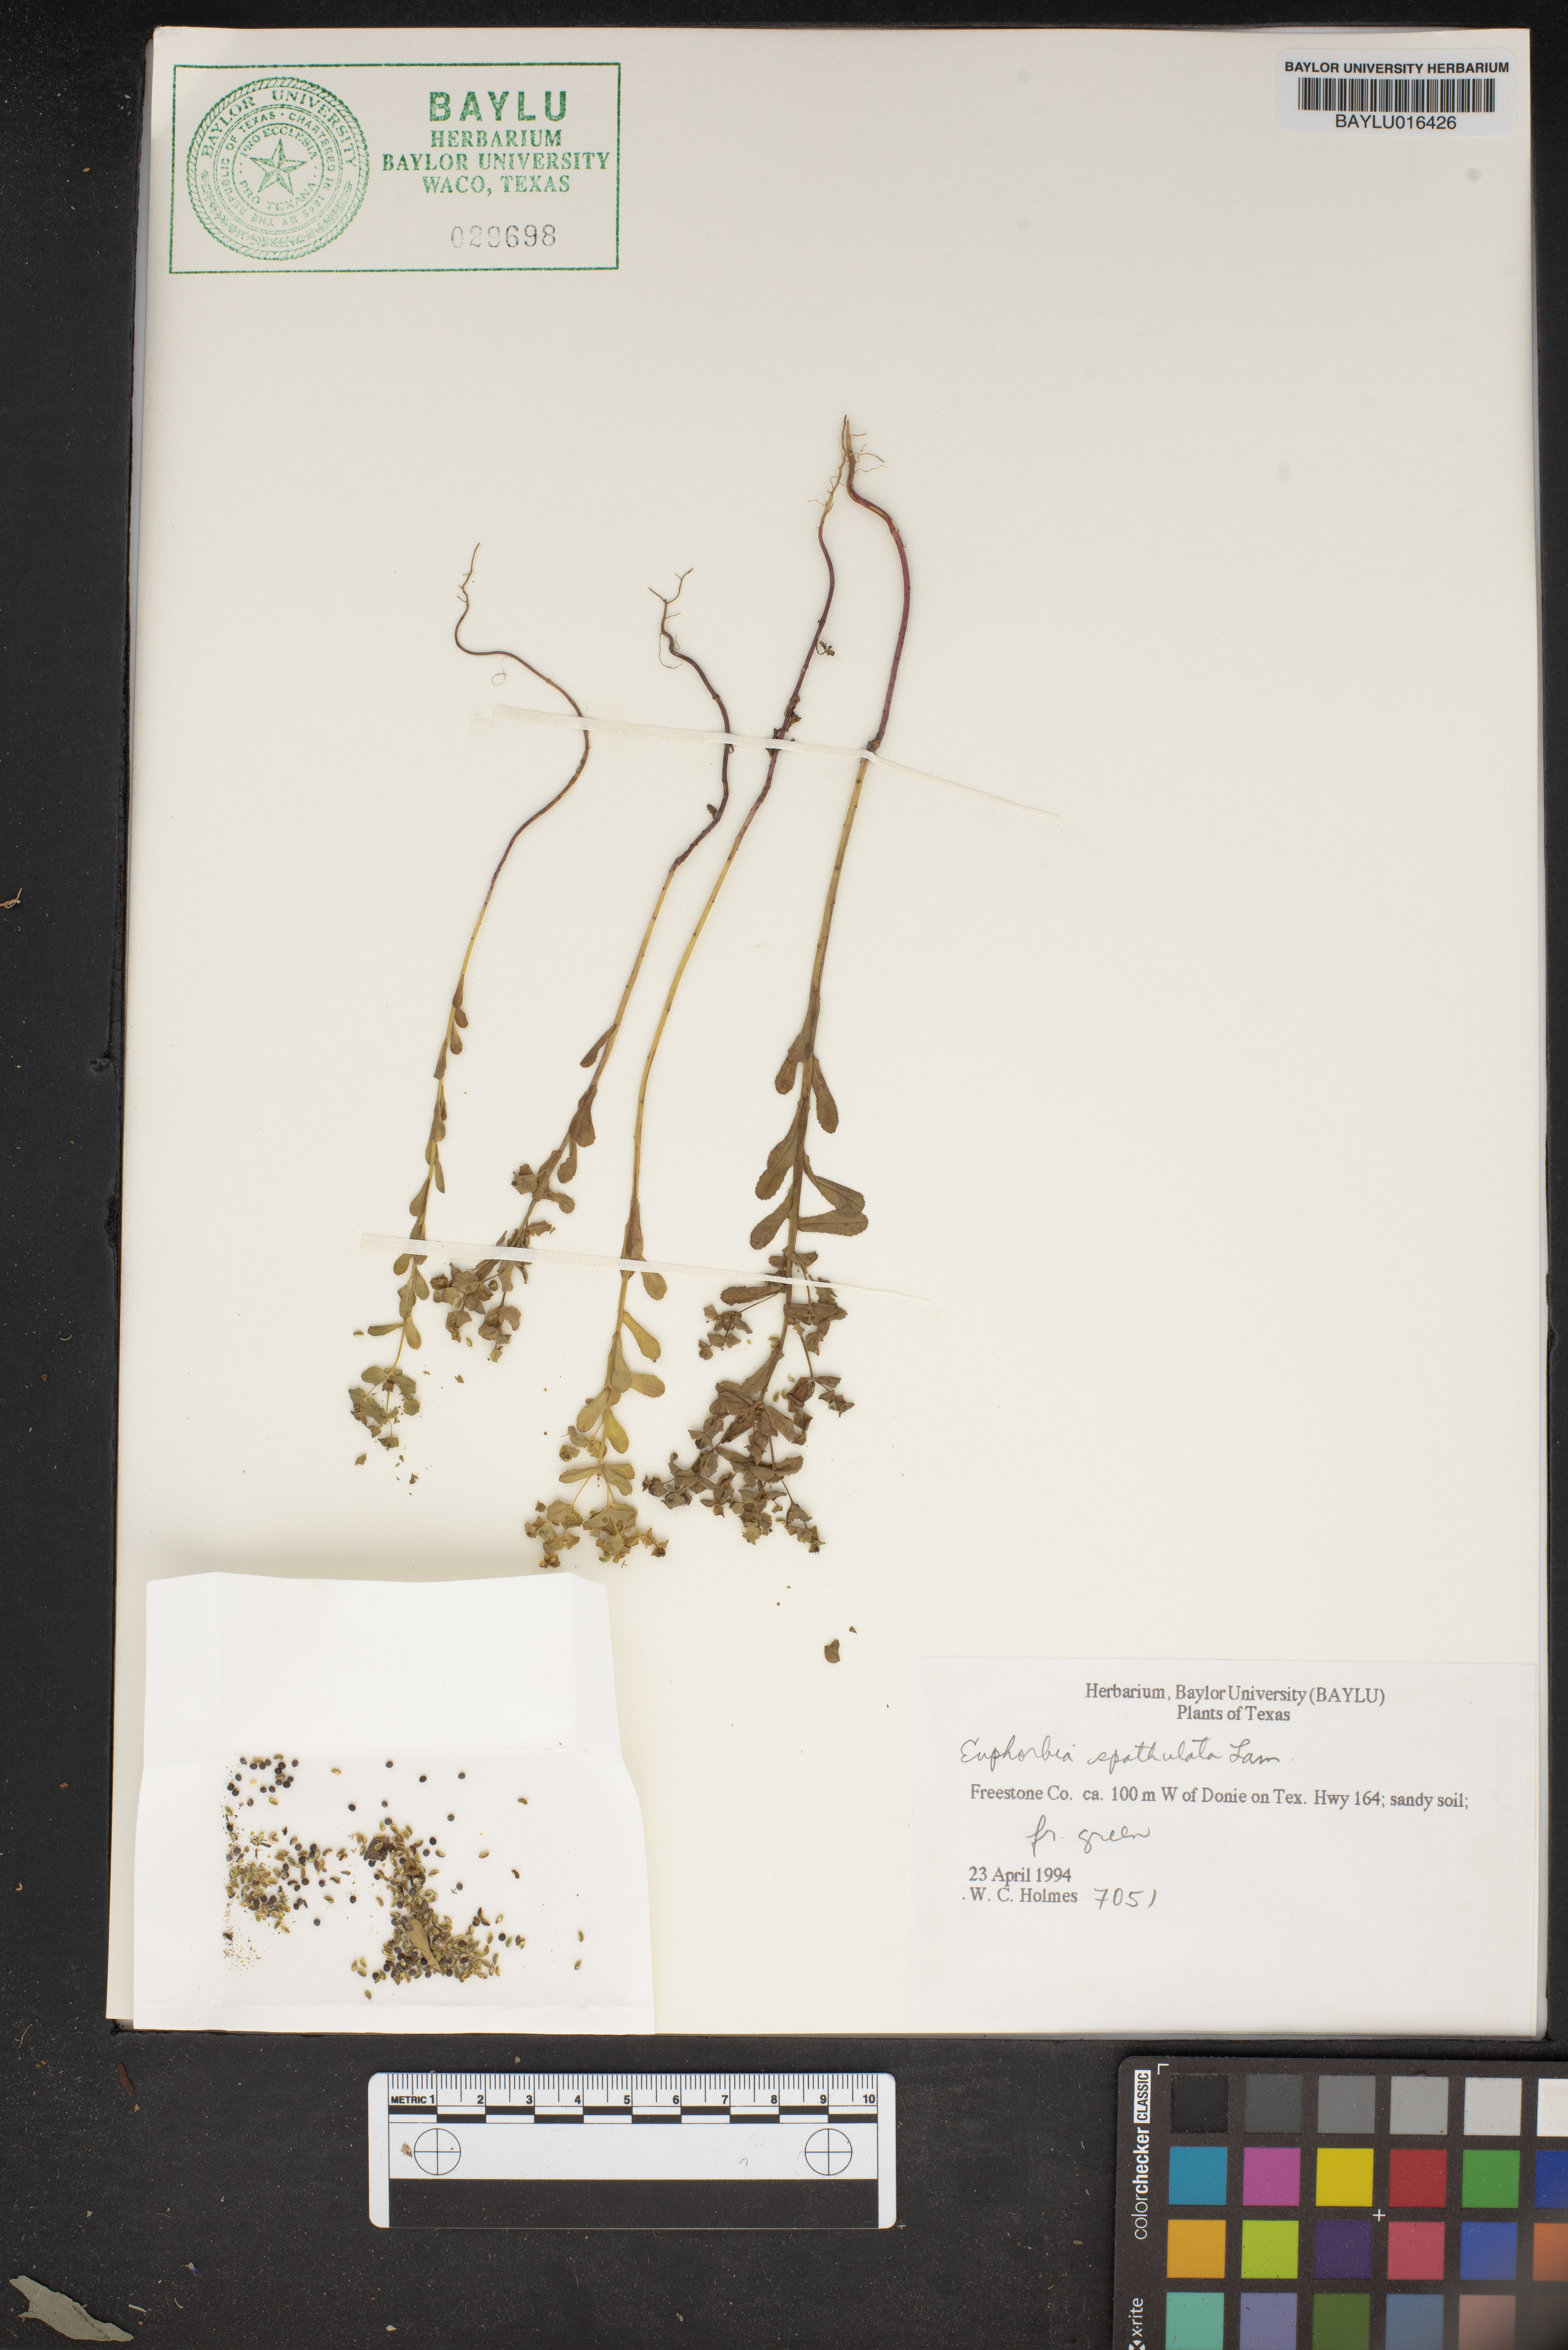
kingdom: Plantae
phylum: Tracheophyta
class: Magnoliopsida
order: Malpighiales
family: Euphorbiaceae
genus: Euphorbia
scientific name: Euphorbia spathulata
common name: Blunt spurge
